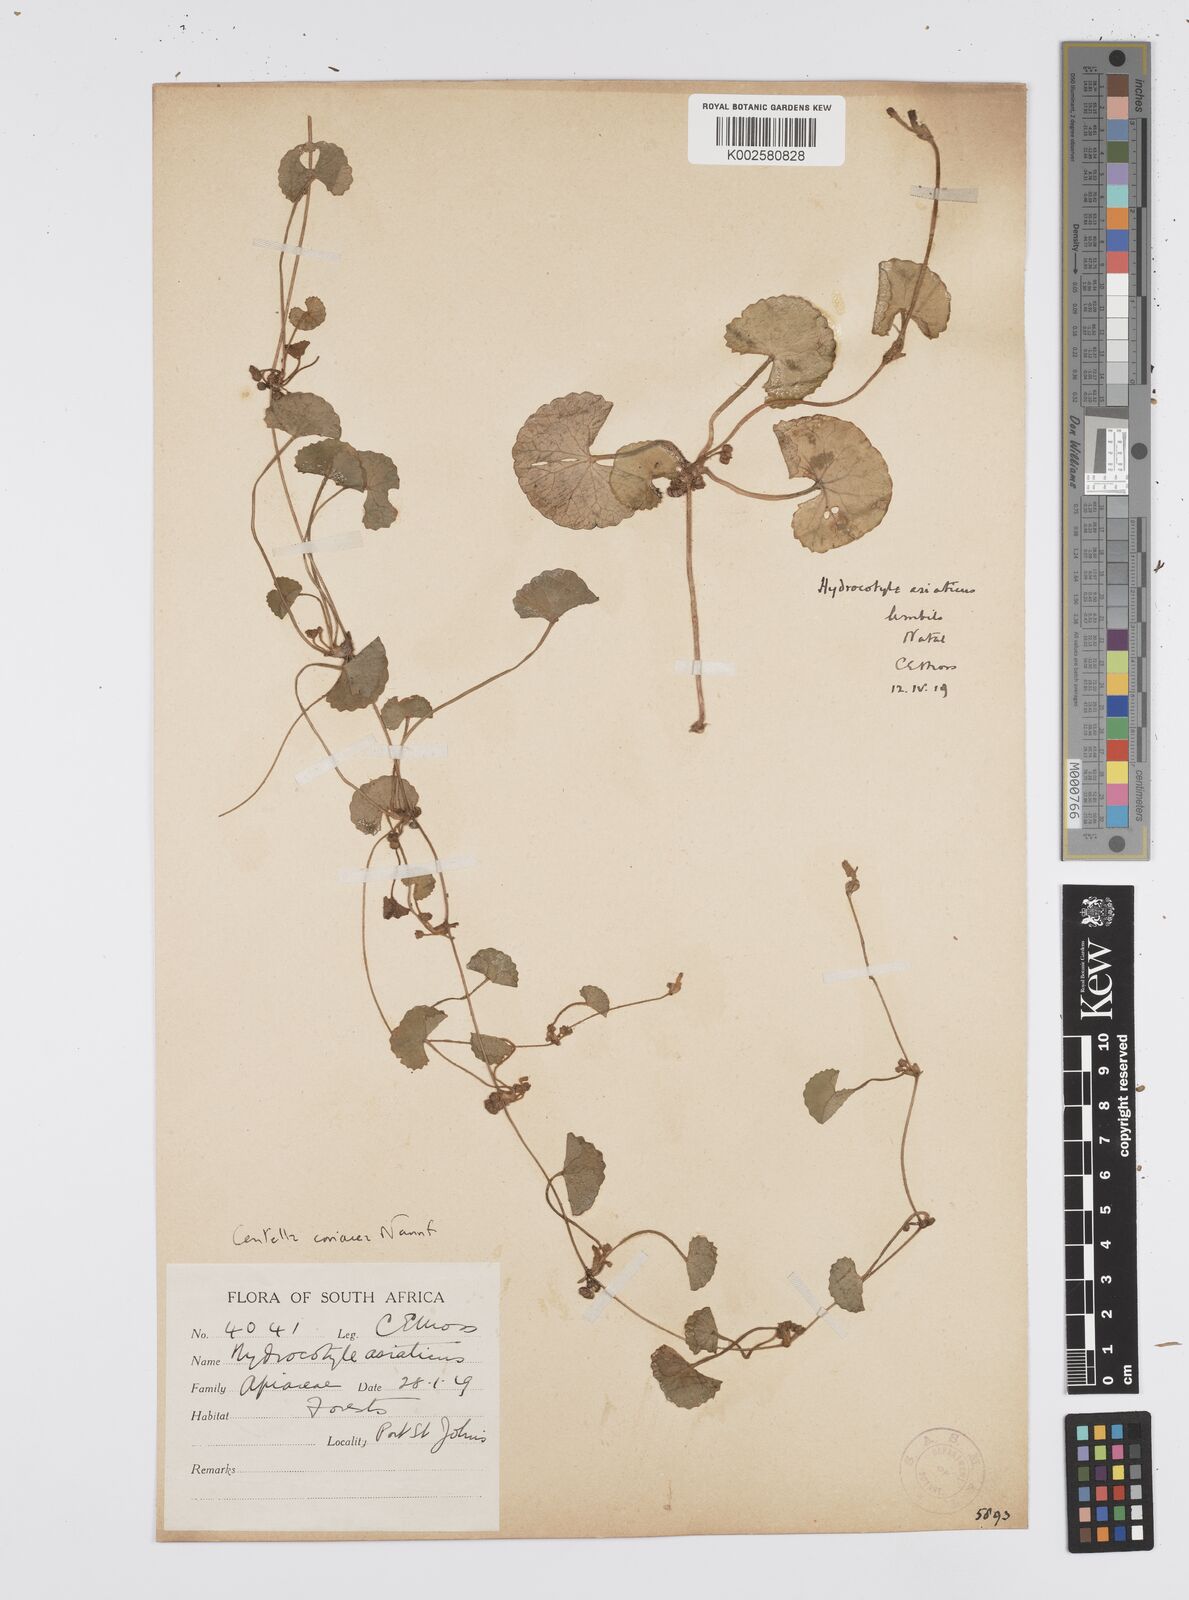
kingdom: Plantae
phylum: Tracheophyta
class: Magnoliopsida
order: Apiales
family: Apiaceae
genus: Centella
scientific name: Centella coriacea
